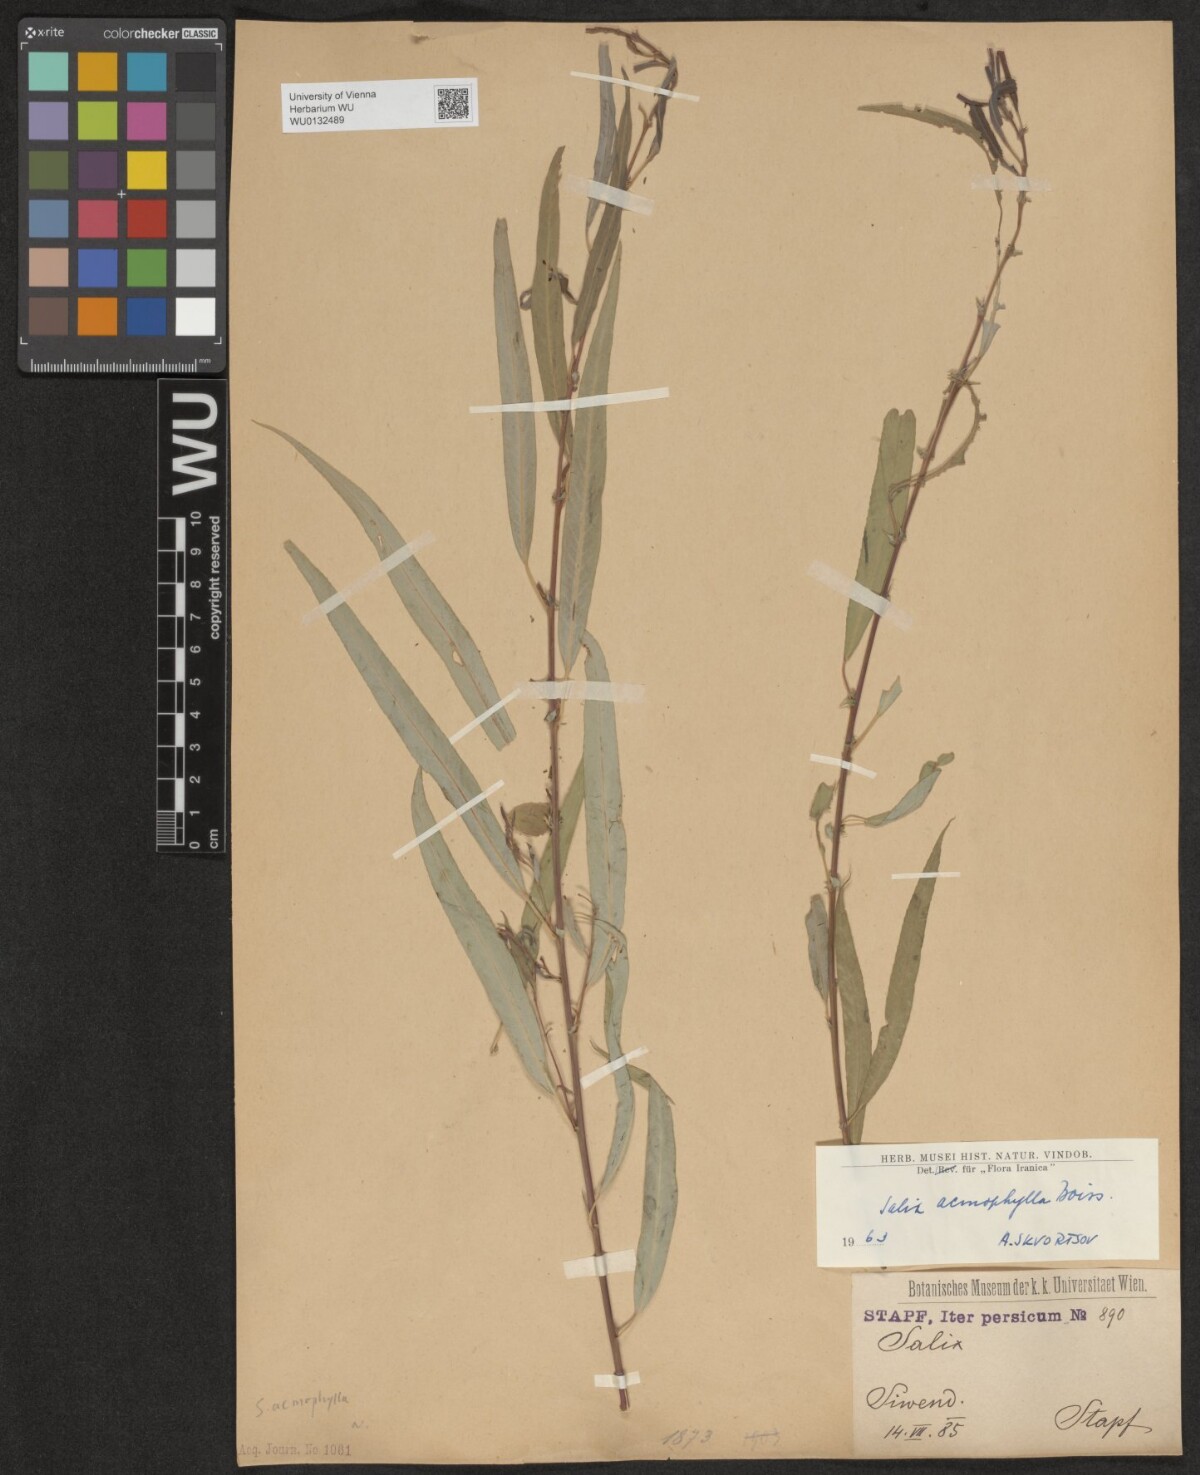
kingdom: Plantae
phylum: Tracheophyta
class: Magnoliopsida
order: Malpighiales
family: Salicaceae
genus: Salix
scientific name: Salix acmophylla
